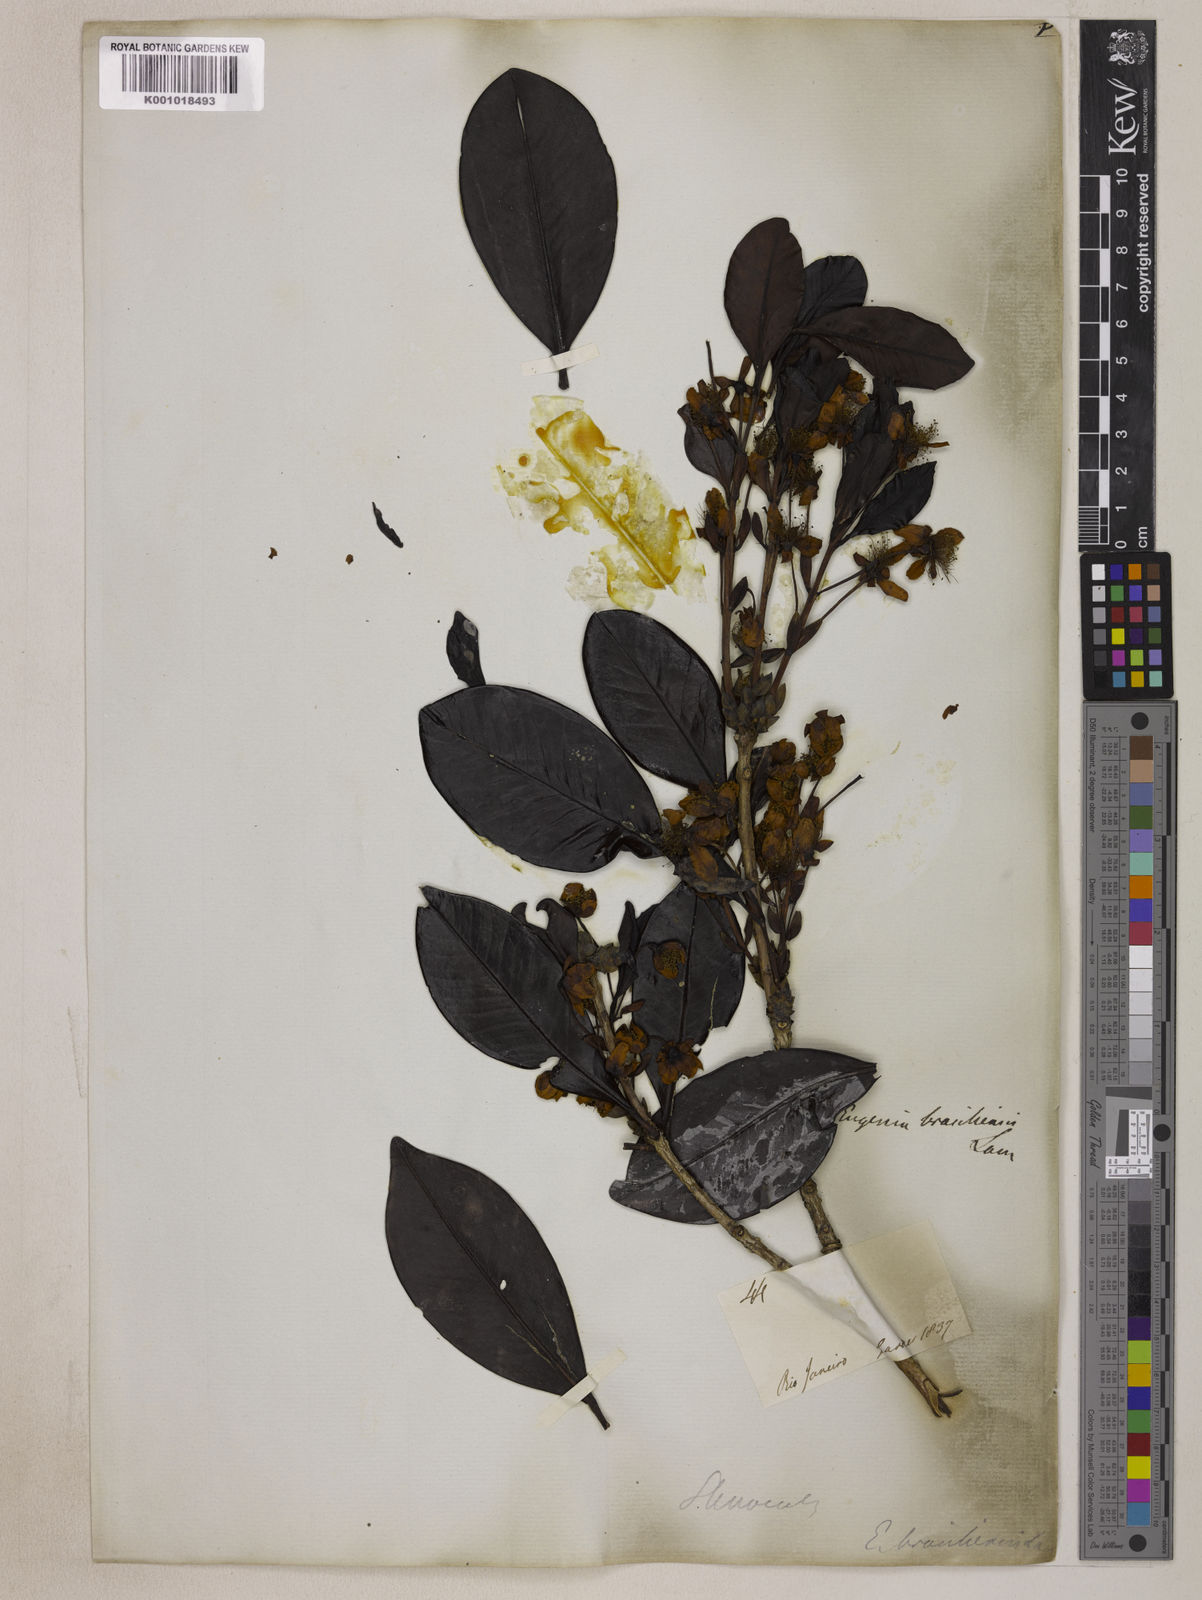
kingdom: Plantae
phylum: Tracheophyta
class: Magnoliopsida
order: Myrtales
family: Myrtaceae
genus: Eugenia
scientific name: Eugenia brasiliensis
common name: Grumichama
